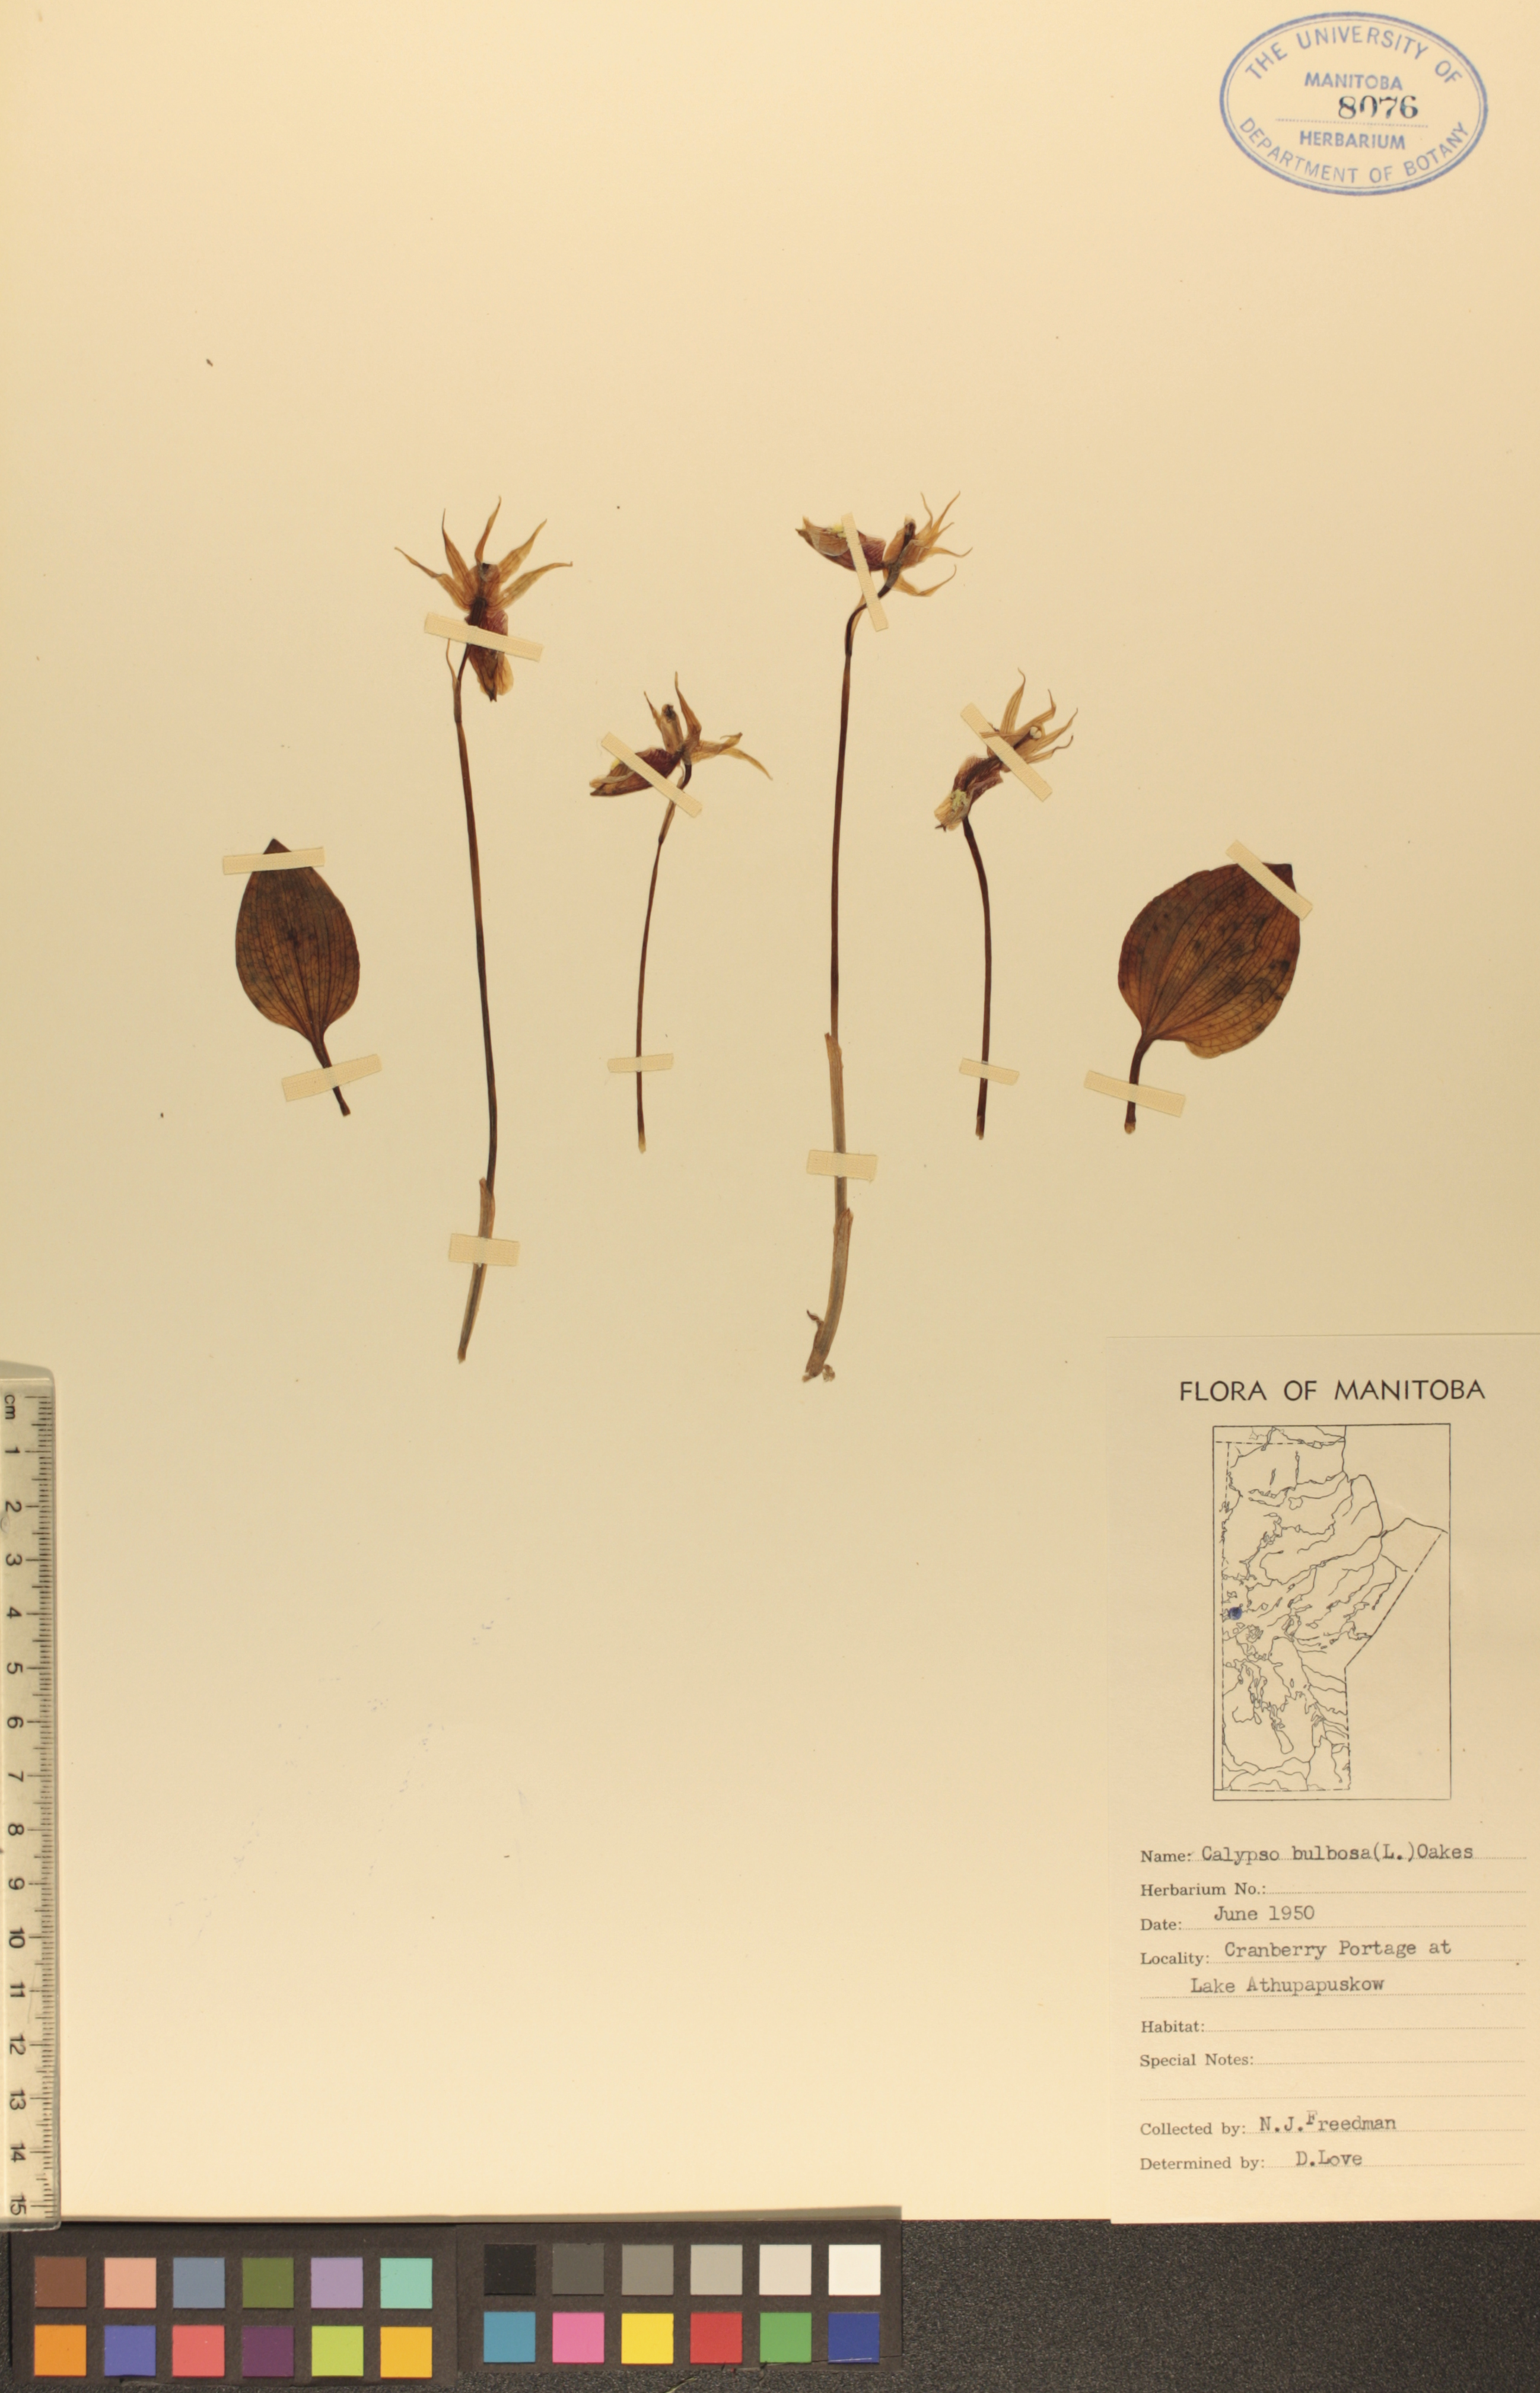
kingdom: Plantae
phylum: Tracheophyta
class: Liliopsida
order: Asparagales
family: Orchidaceae
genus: Calypso
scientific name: Calypso bulbosa
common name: Calypso
